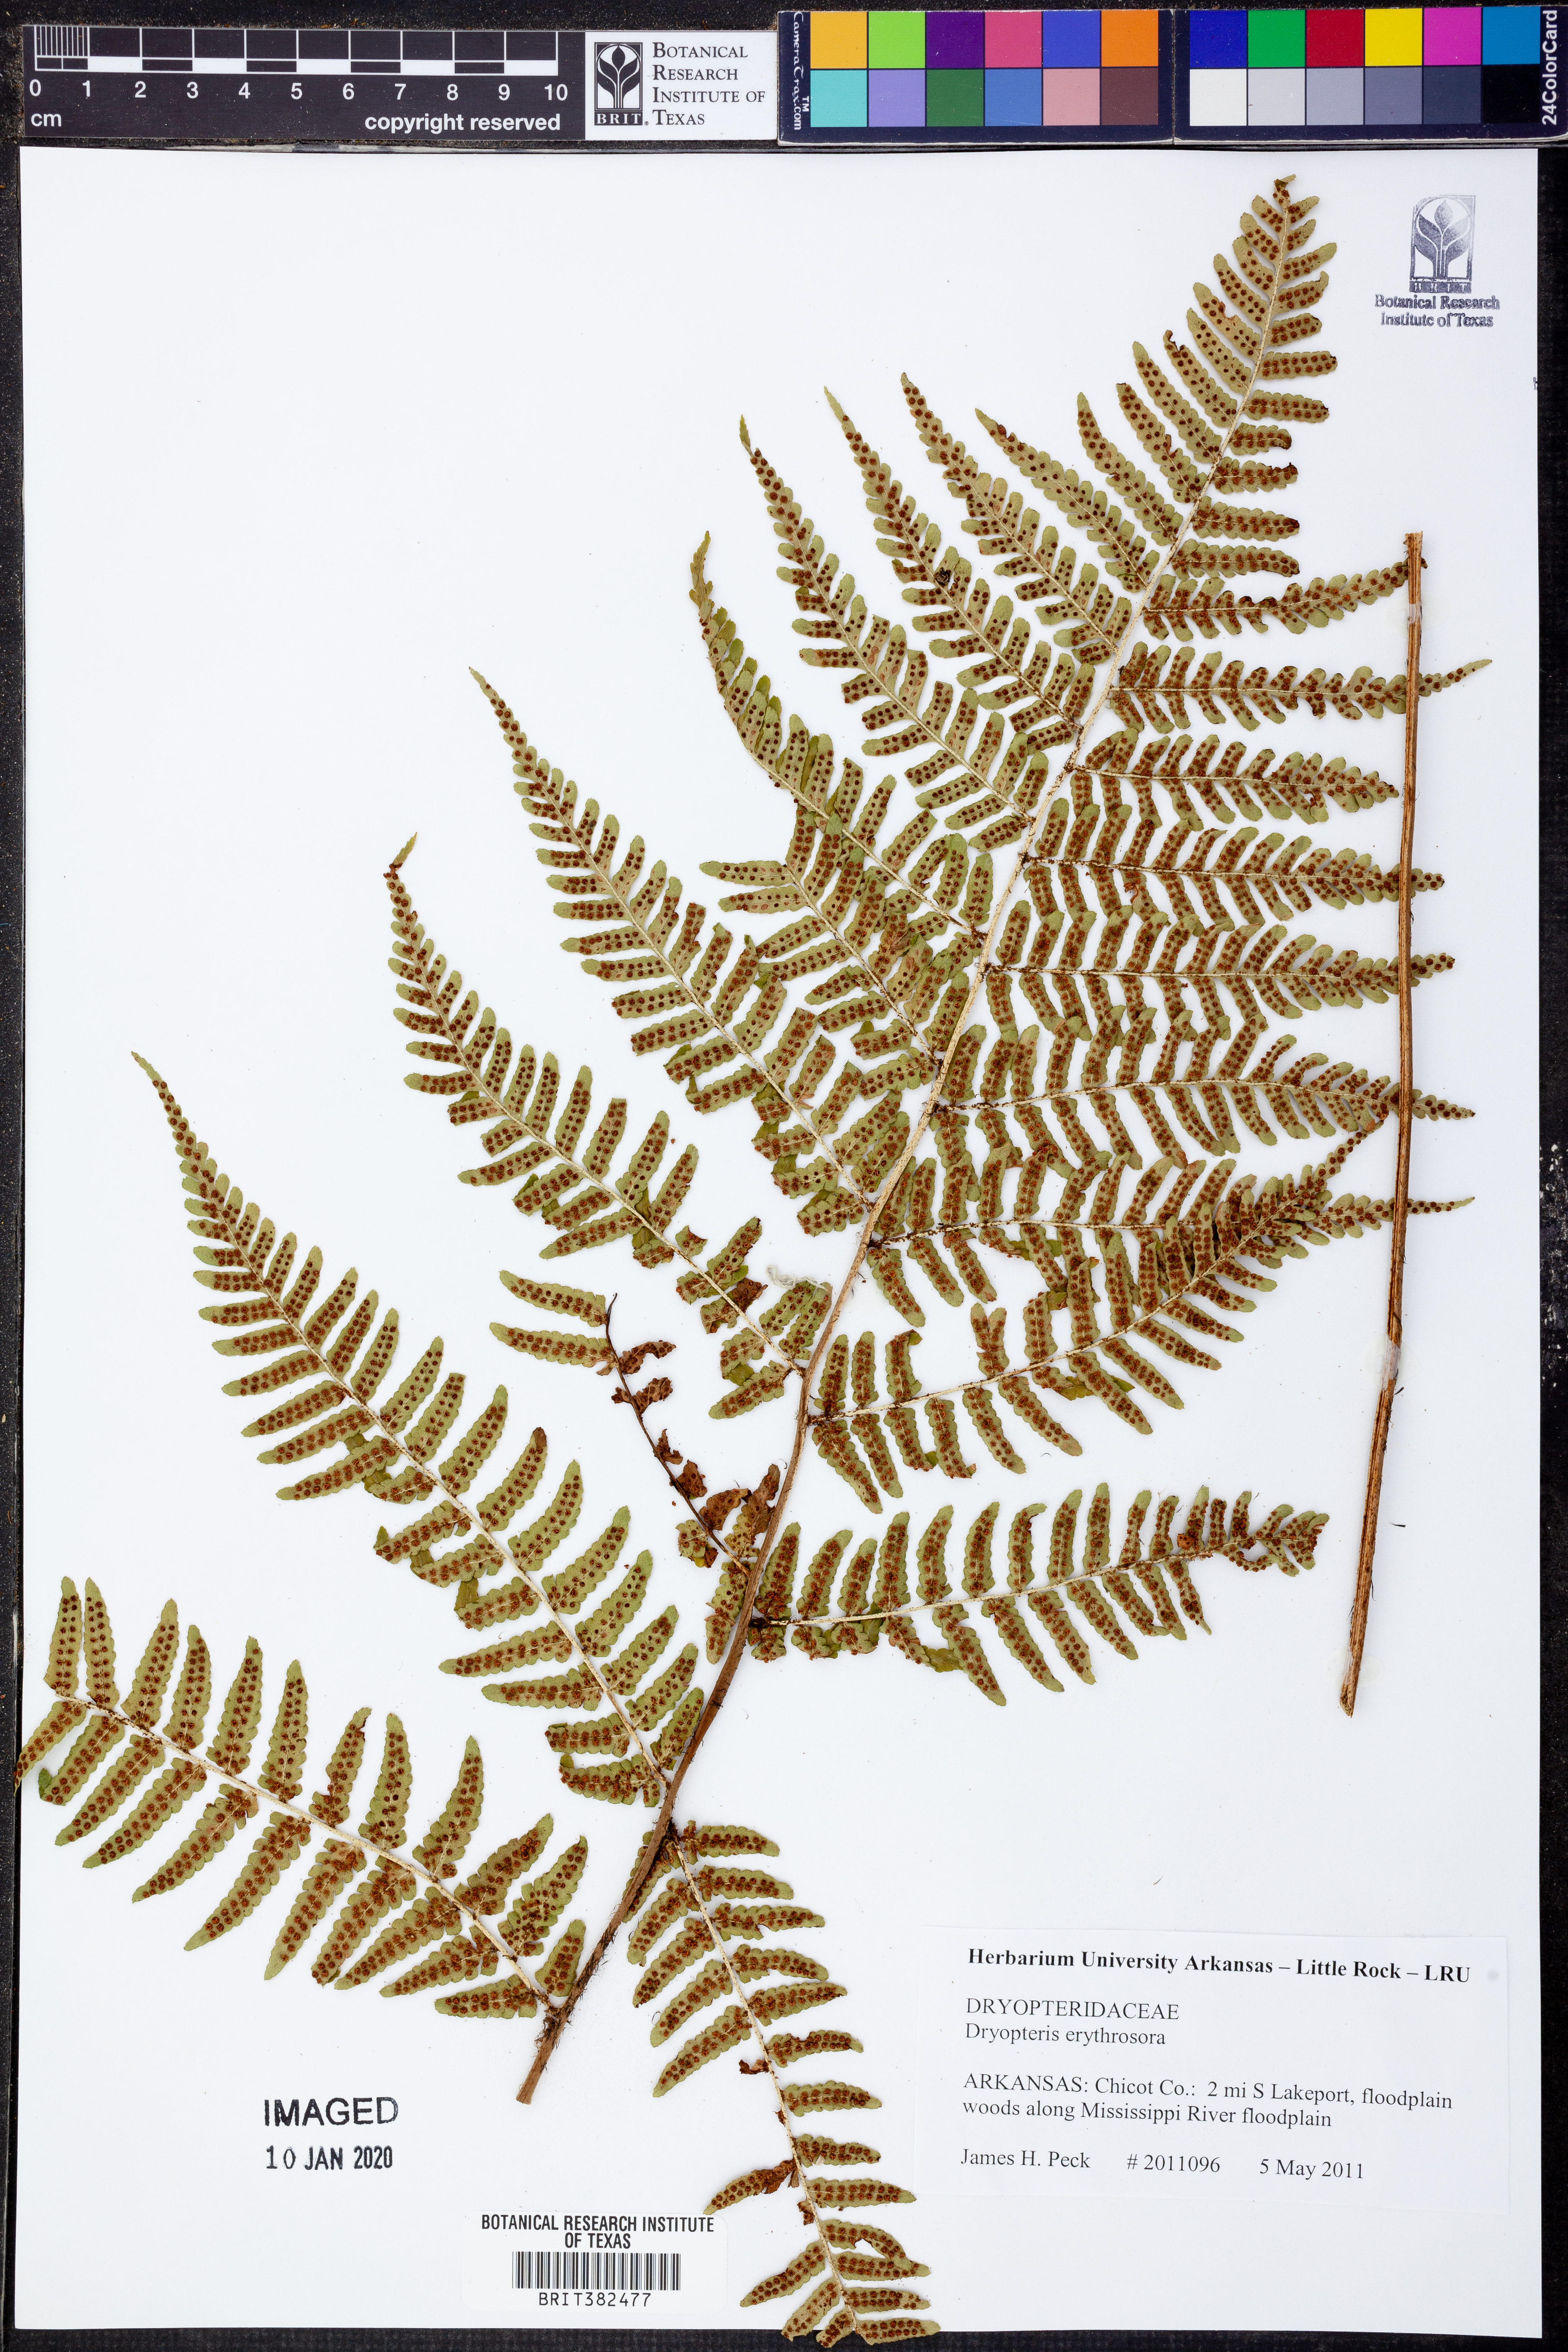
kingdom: Plantae
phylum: Tracheophyta
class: Polypodiopsida
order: Polypodiales
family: Dryopteridaceae
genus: Dryopteris
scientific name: Dryopteris erythrosora
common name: Autumn fern
